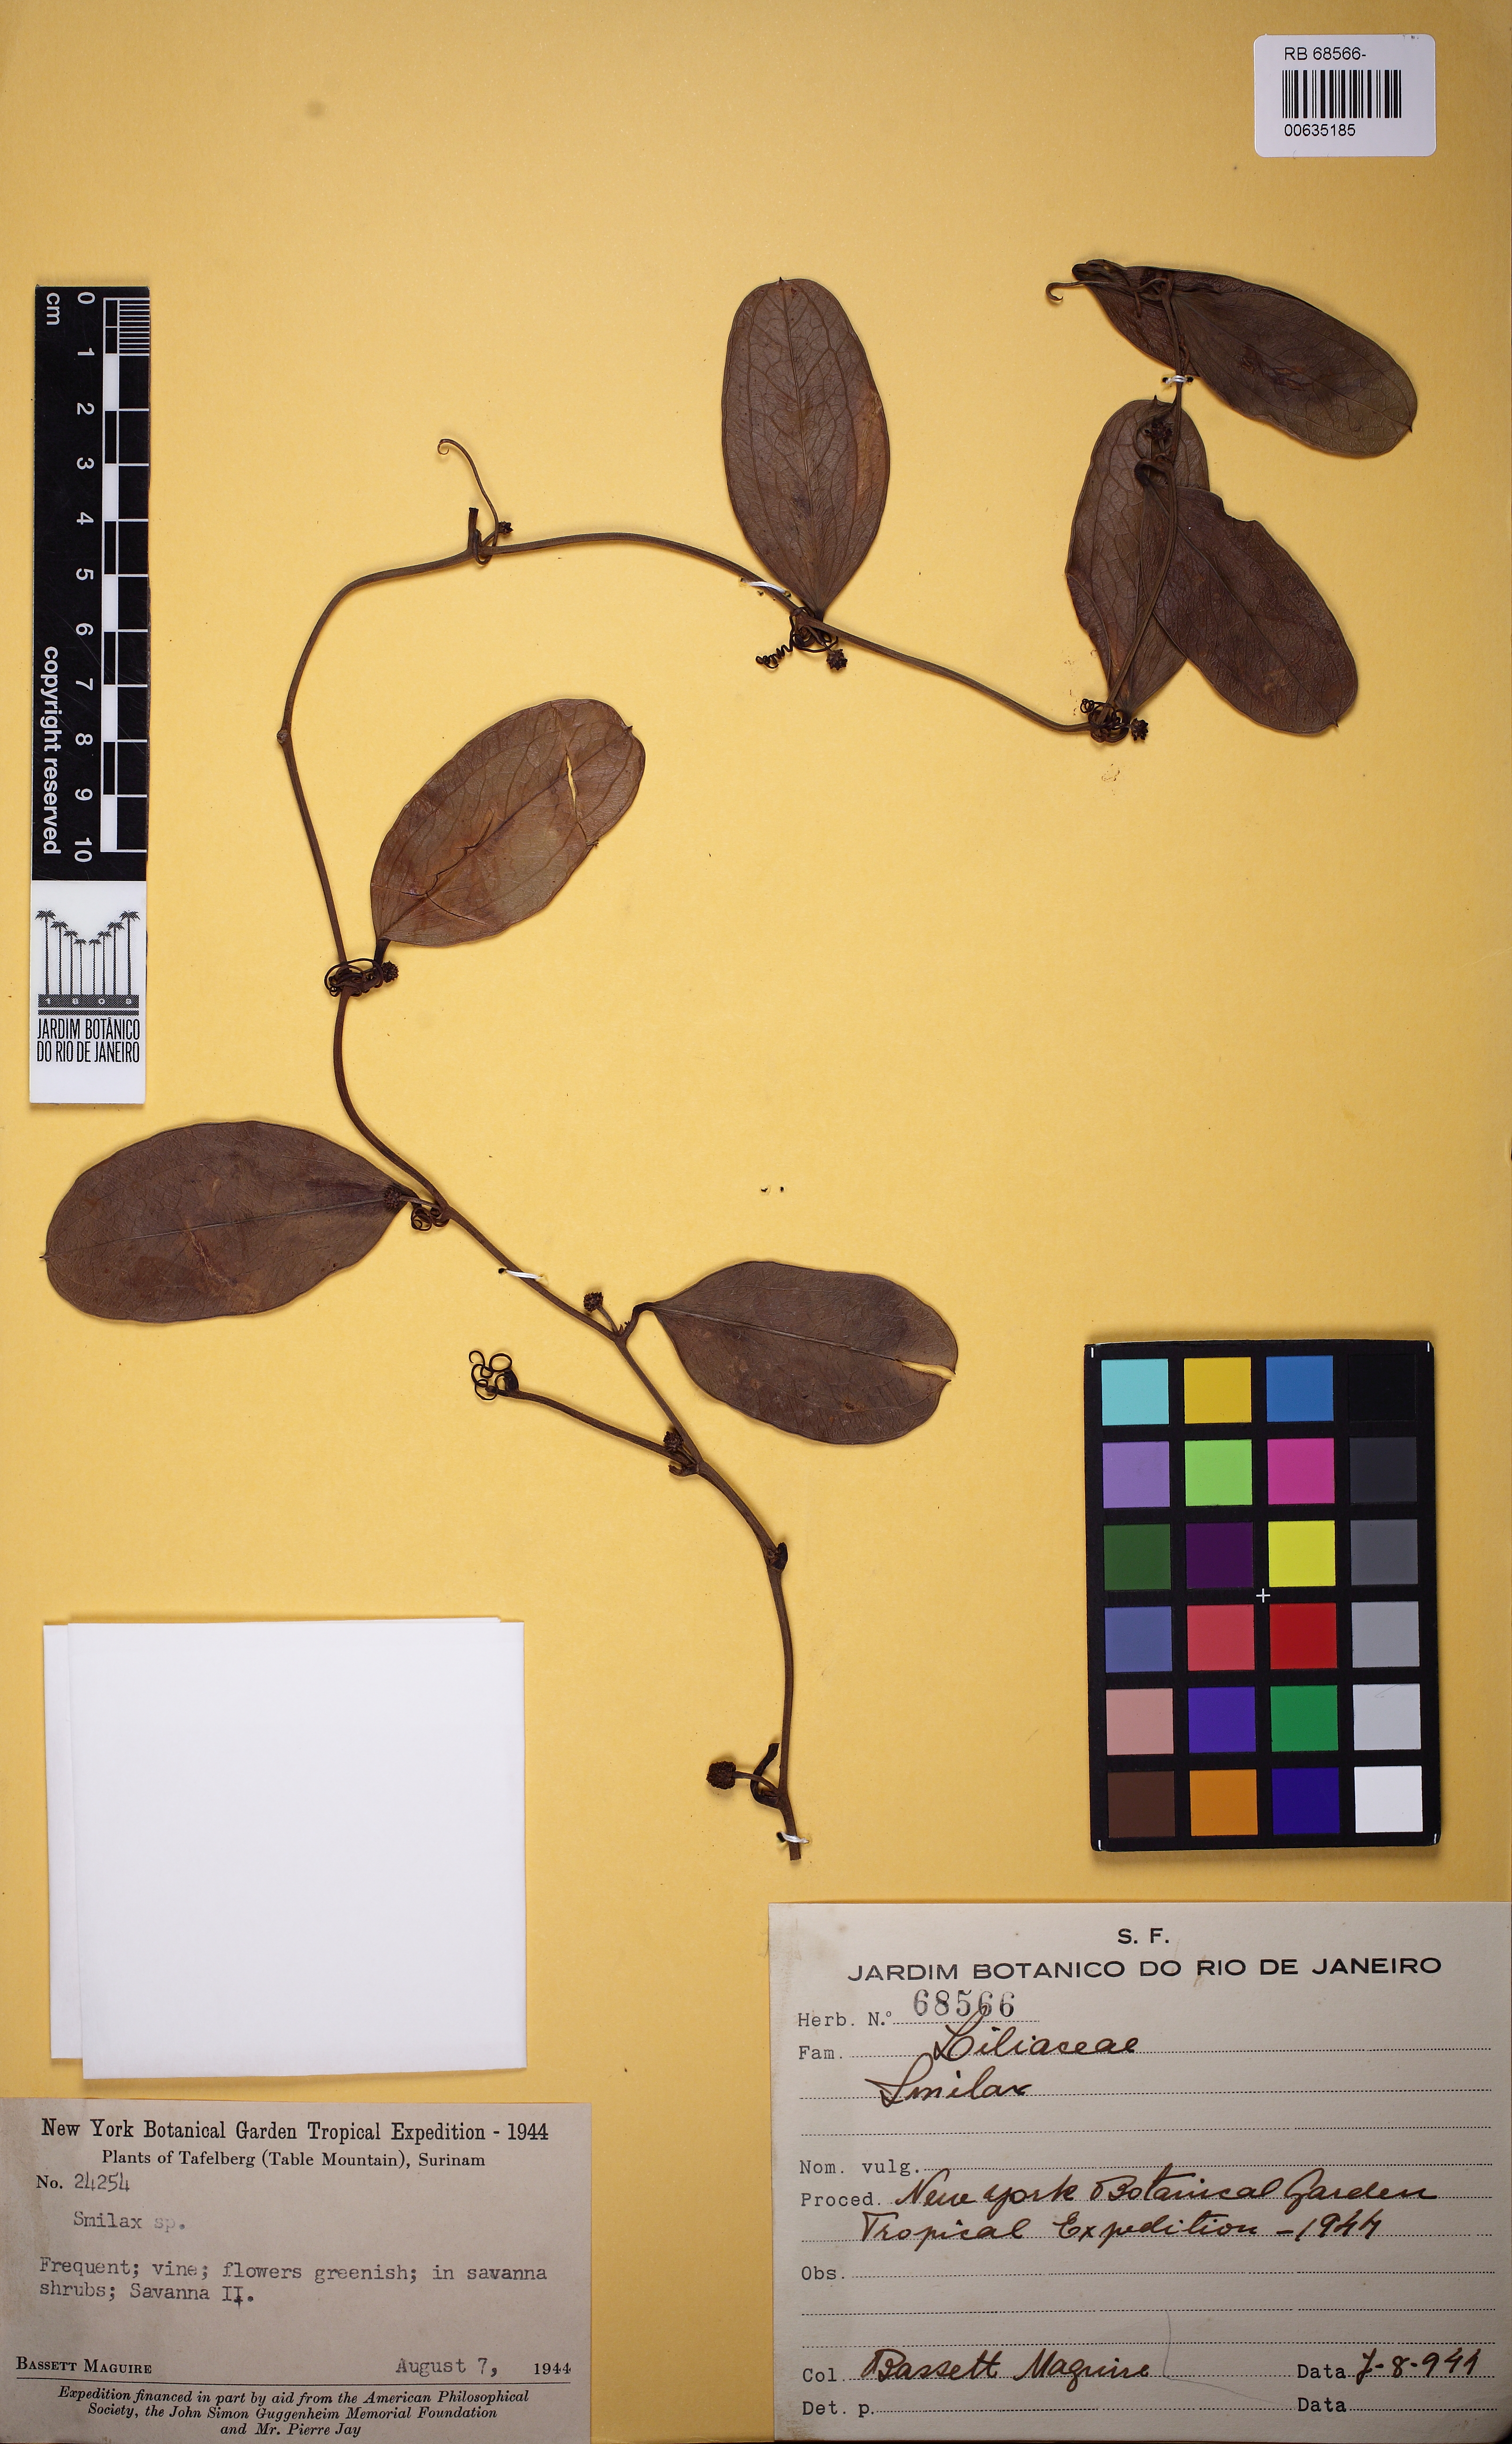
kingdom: Plantae
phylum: Tracheophyta
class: Liliopsida
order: Liliales
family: Smilacaceae
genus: Smilax
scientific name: Smilax
